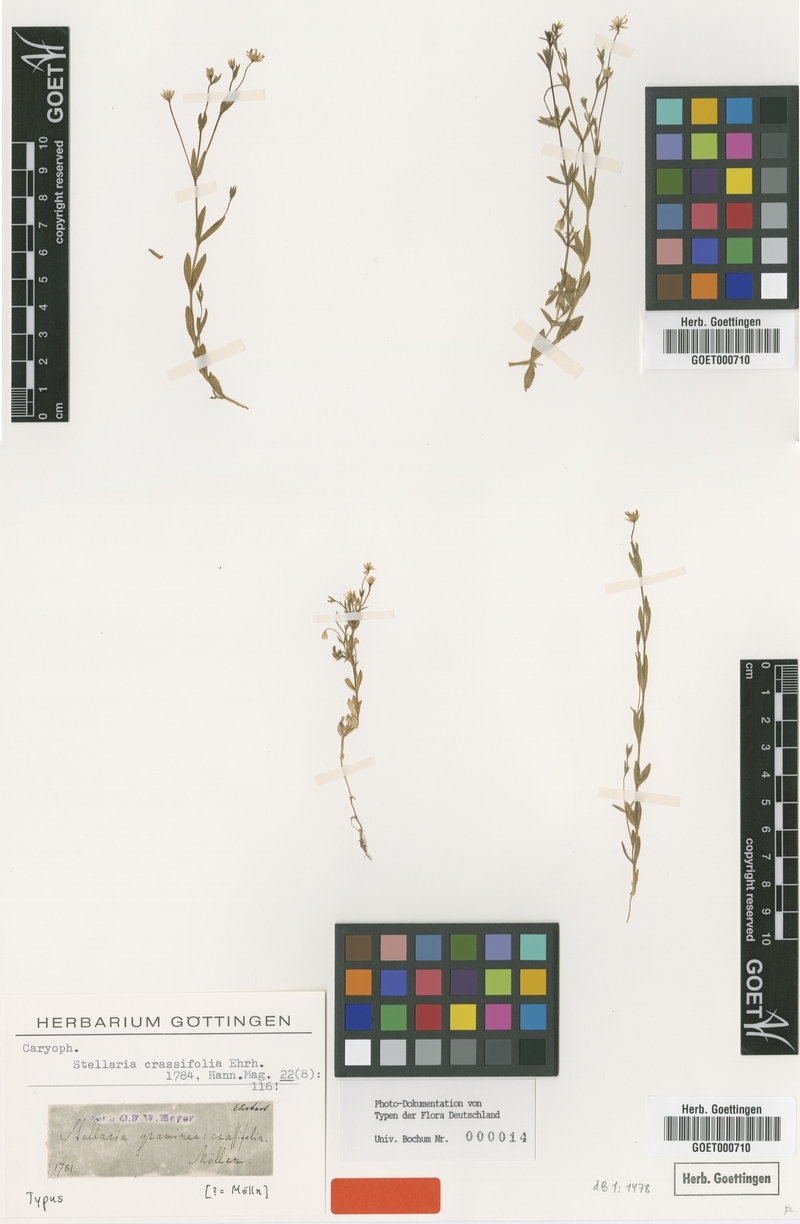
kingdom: Plantae
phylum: Tracheophyta
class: Magnoliopsida
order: Caryophyllales
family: Caryophyllaceae
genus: Stellaria
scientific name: Stellaria crassifolia
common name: Fleshy starwort
